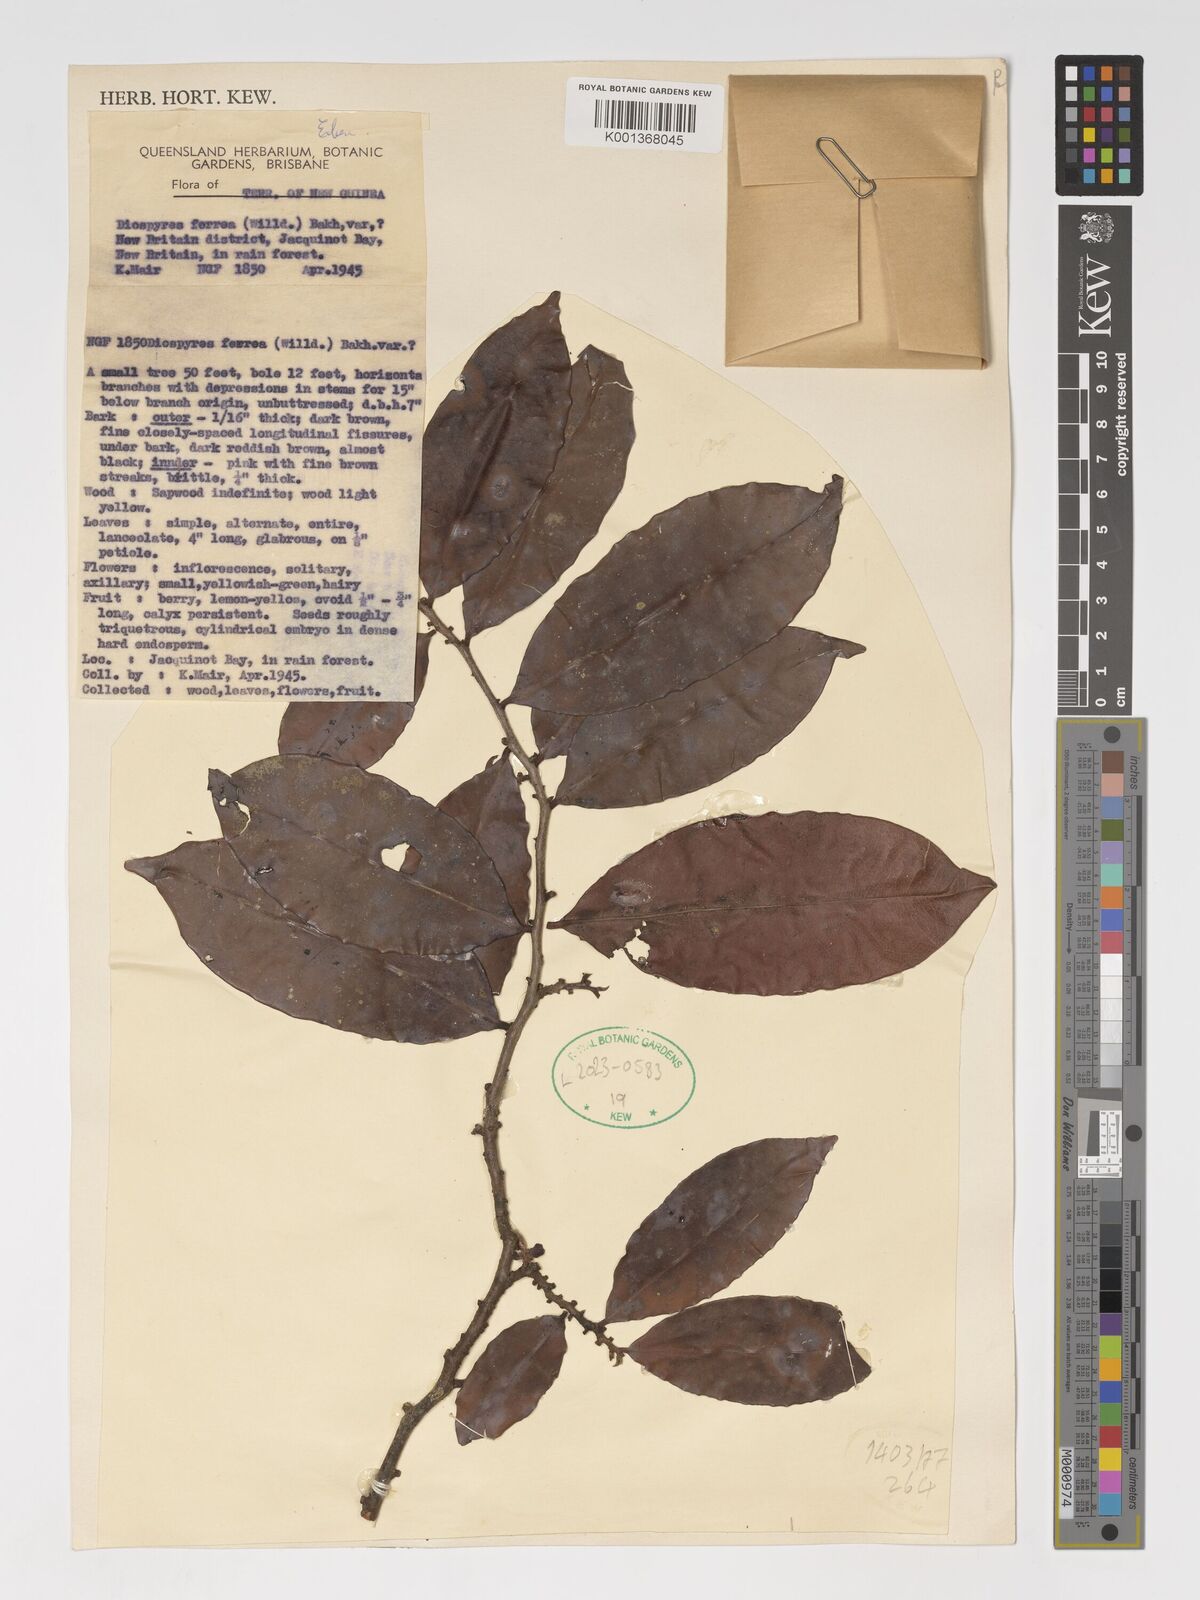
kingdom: Plantae
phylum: Tracheophyta
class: Magnoliopsida
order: Ericales
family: Ebenaceae
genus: Diospyros
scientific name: Diospyros ferrea
